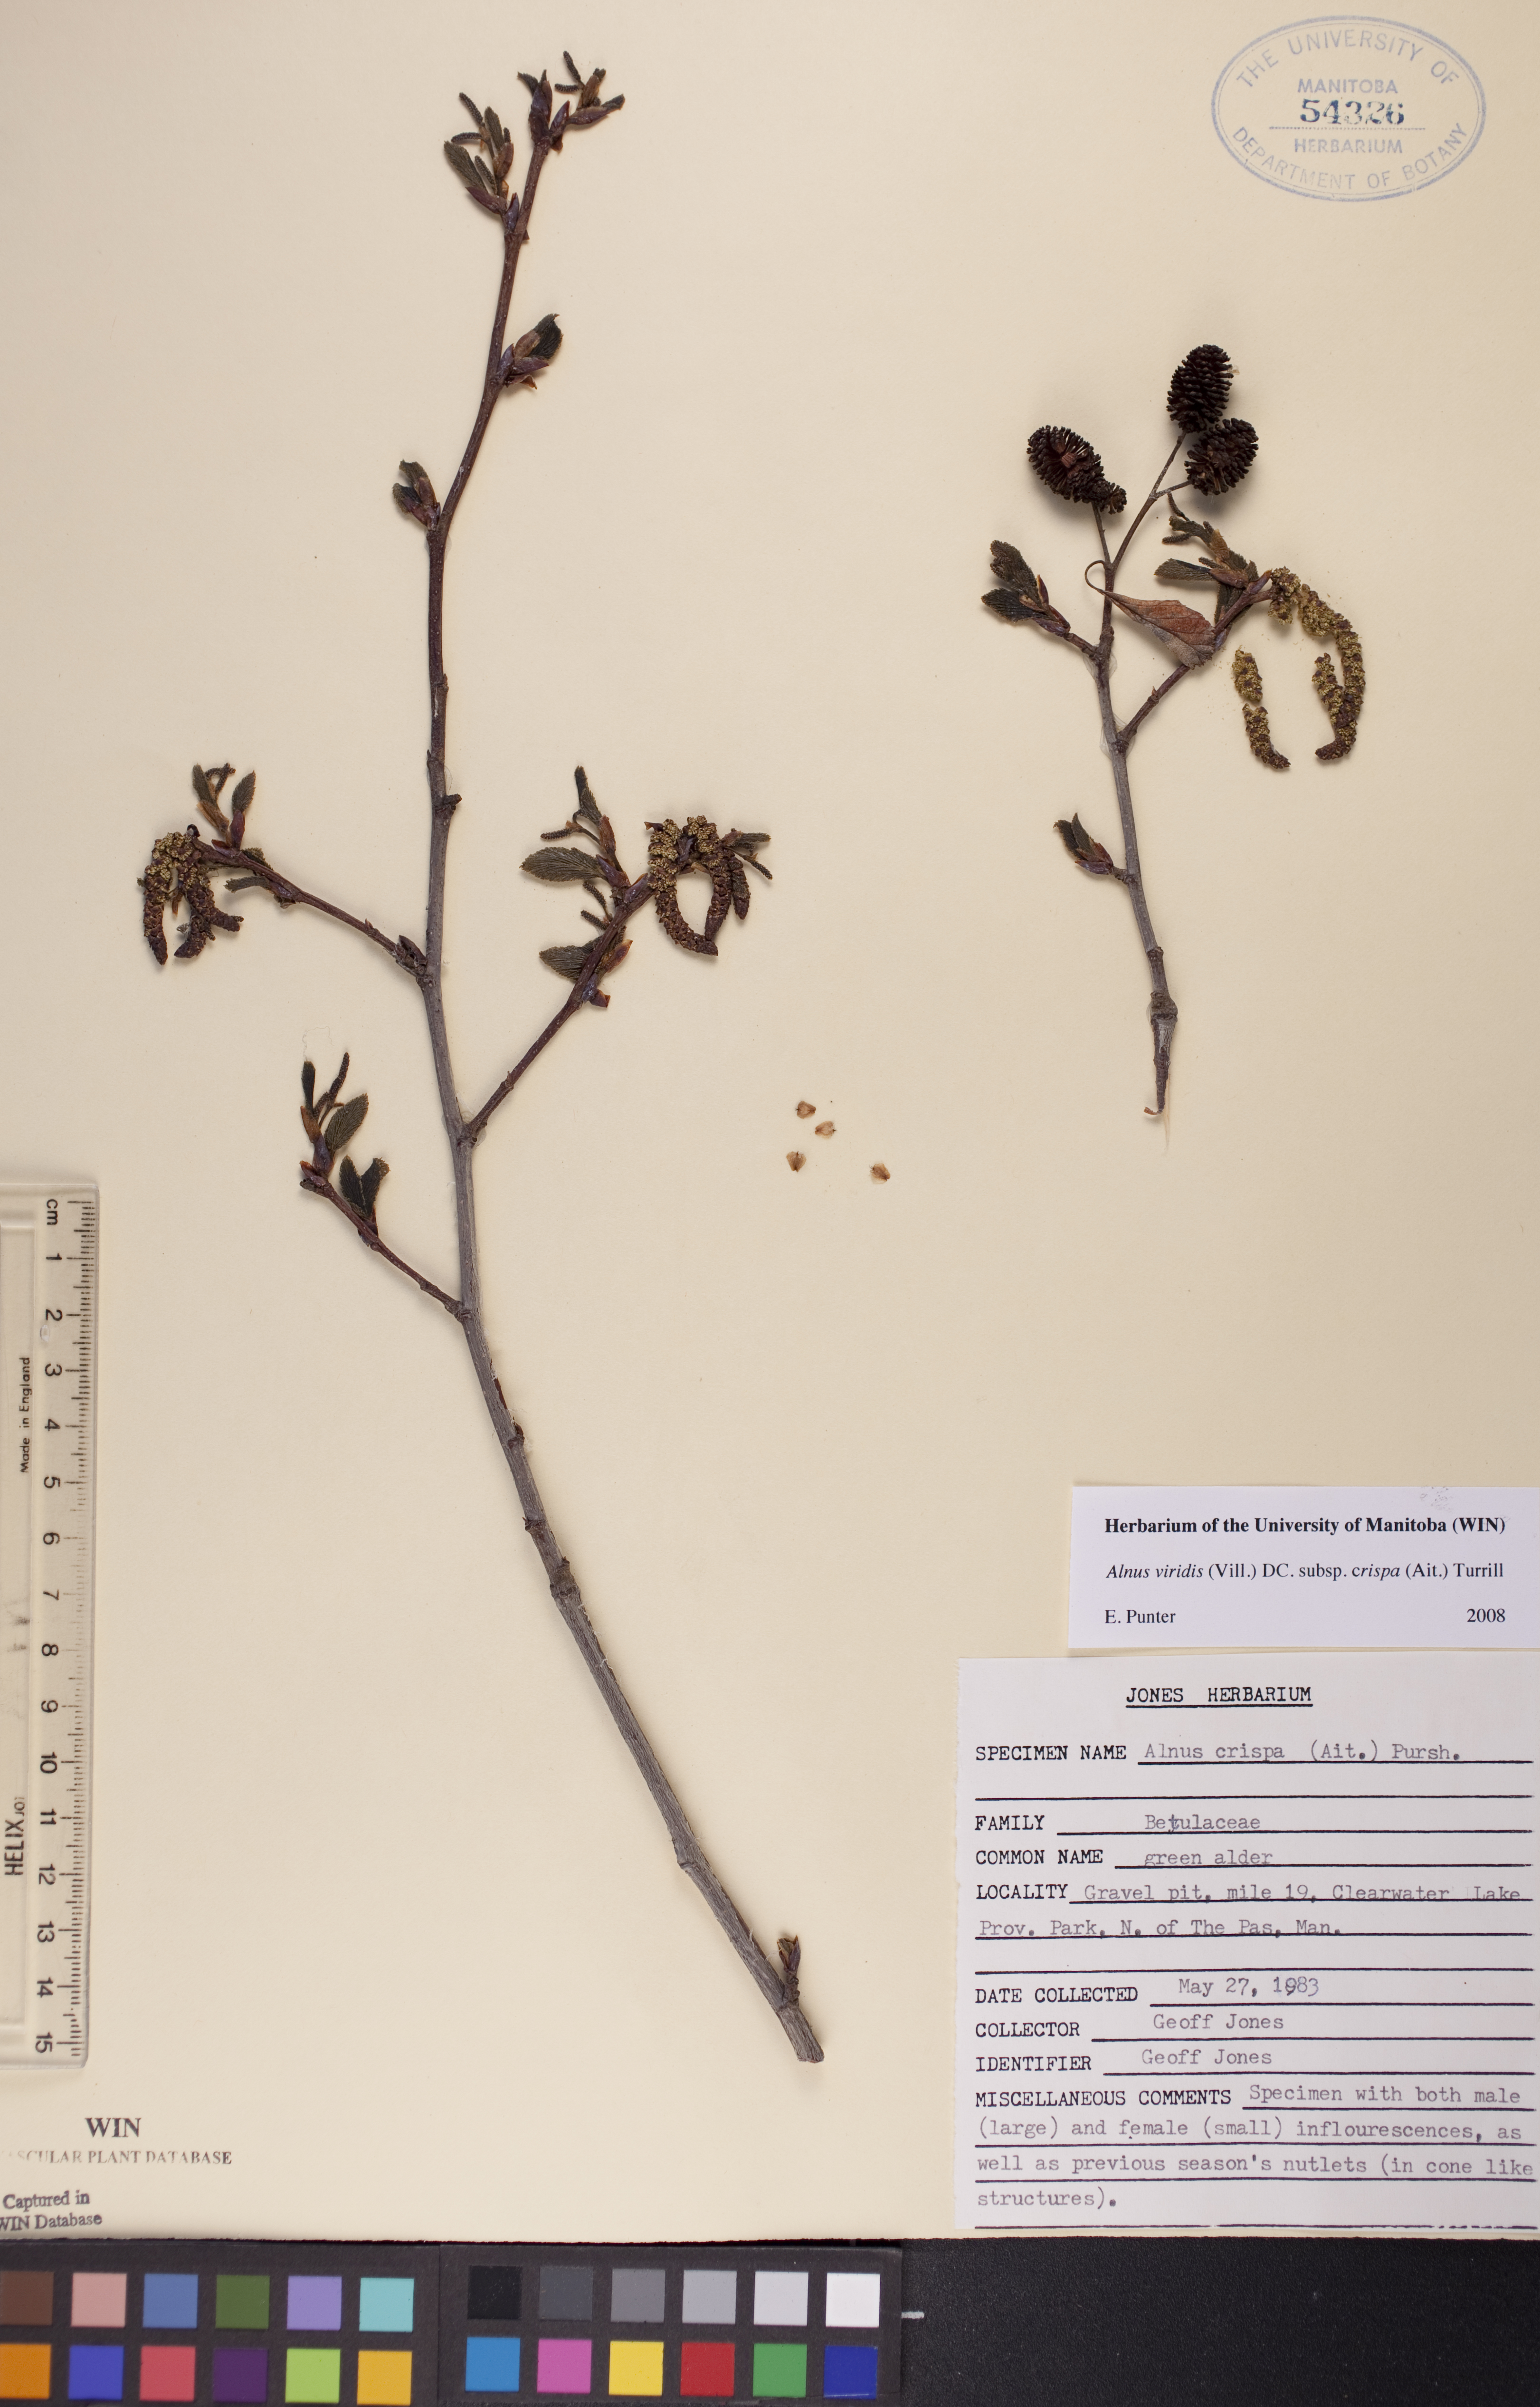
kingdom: Plantae
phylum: Tracheophyta
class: Magnoliopsida
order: Fagales
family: Betulaceae
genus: Alnus
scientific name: Alnus alnobetula
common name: Green alder
